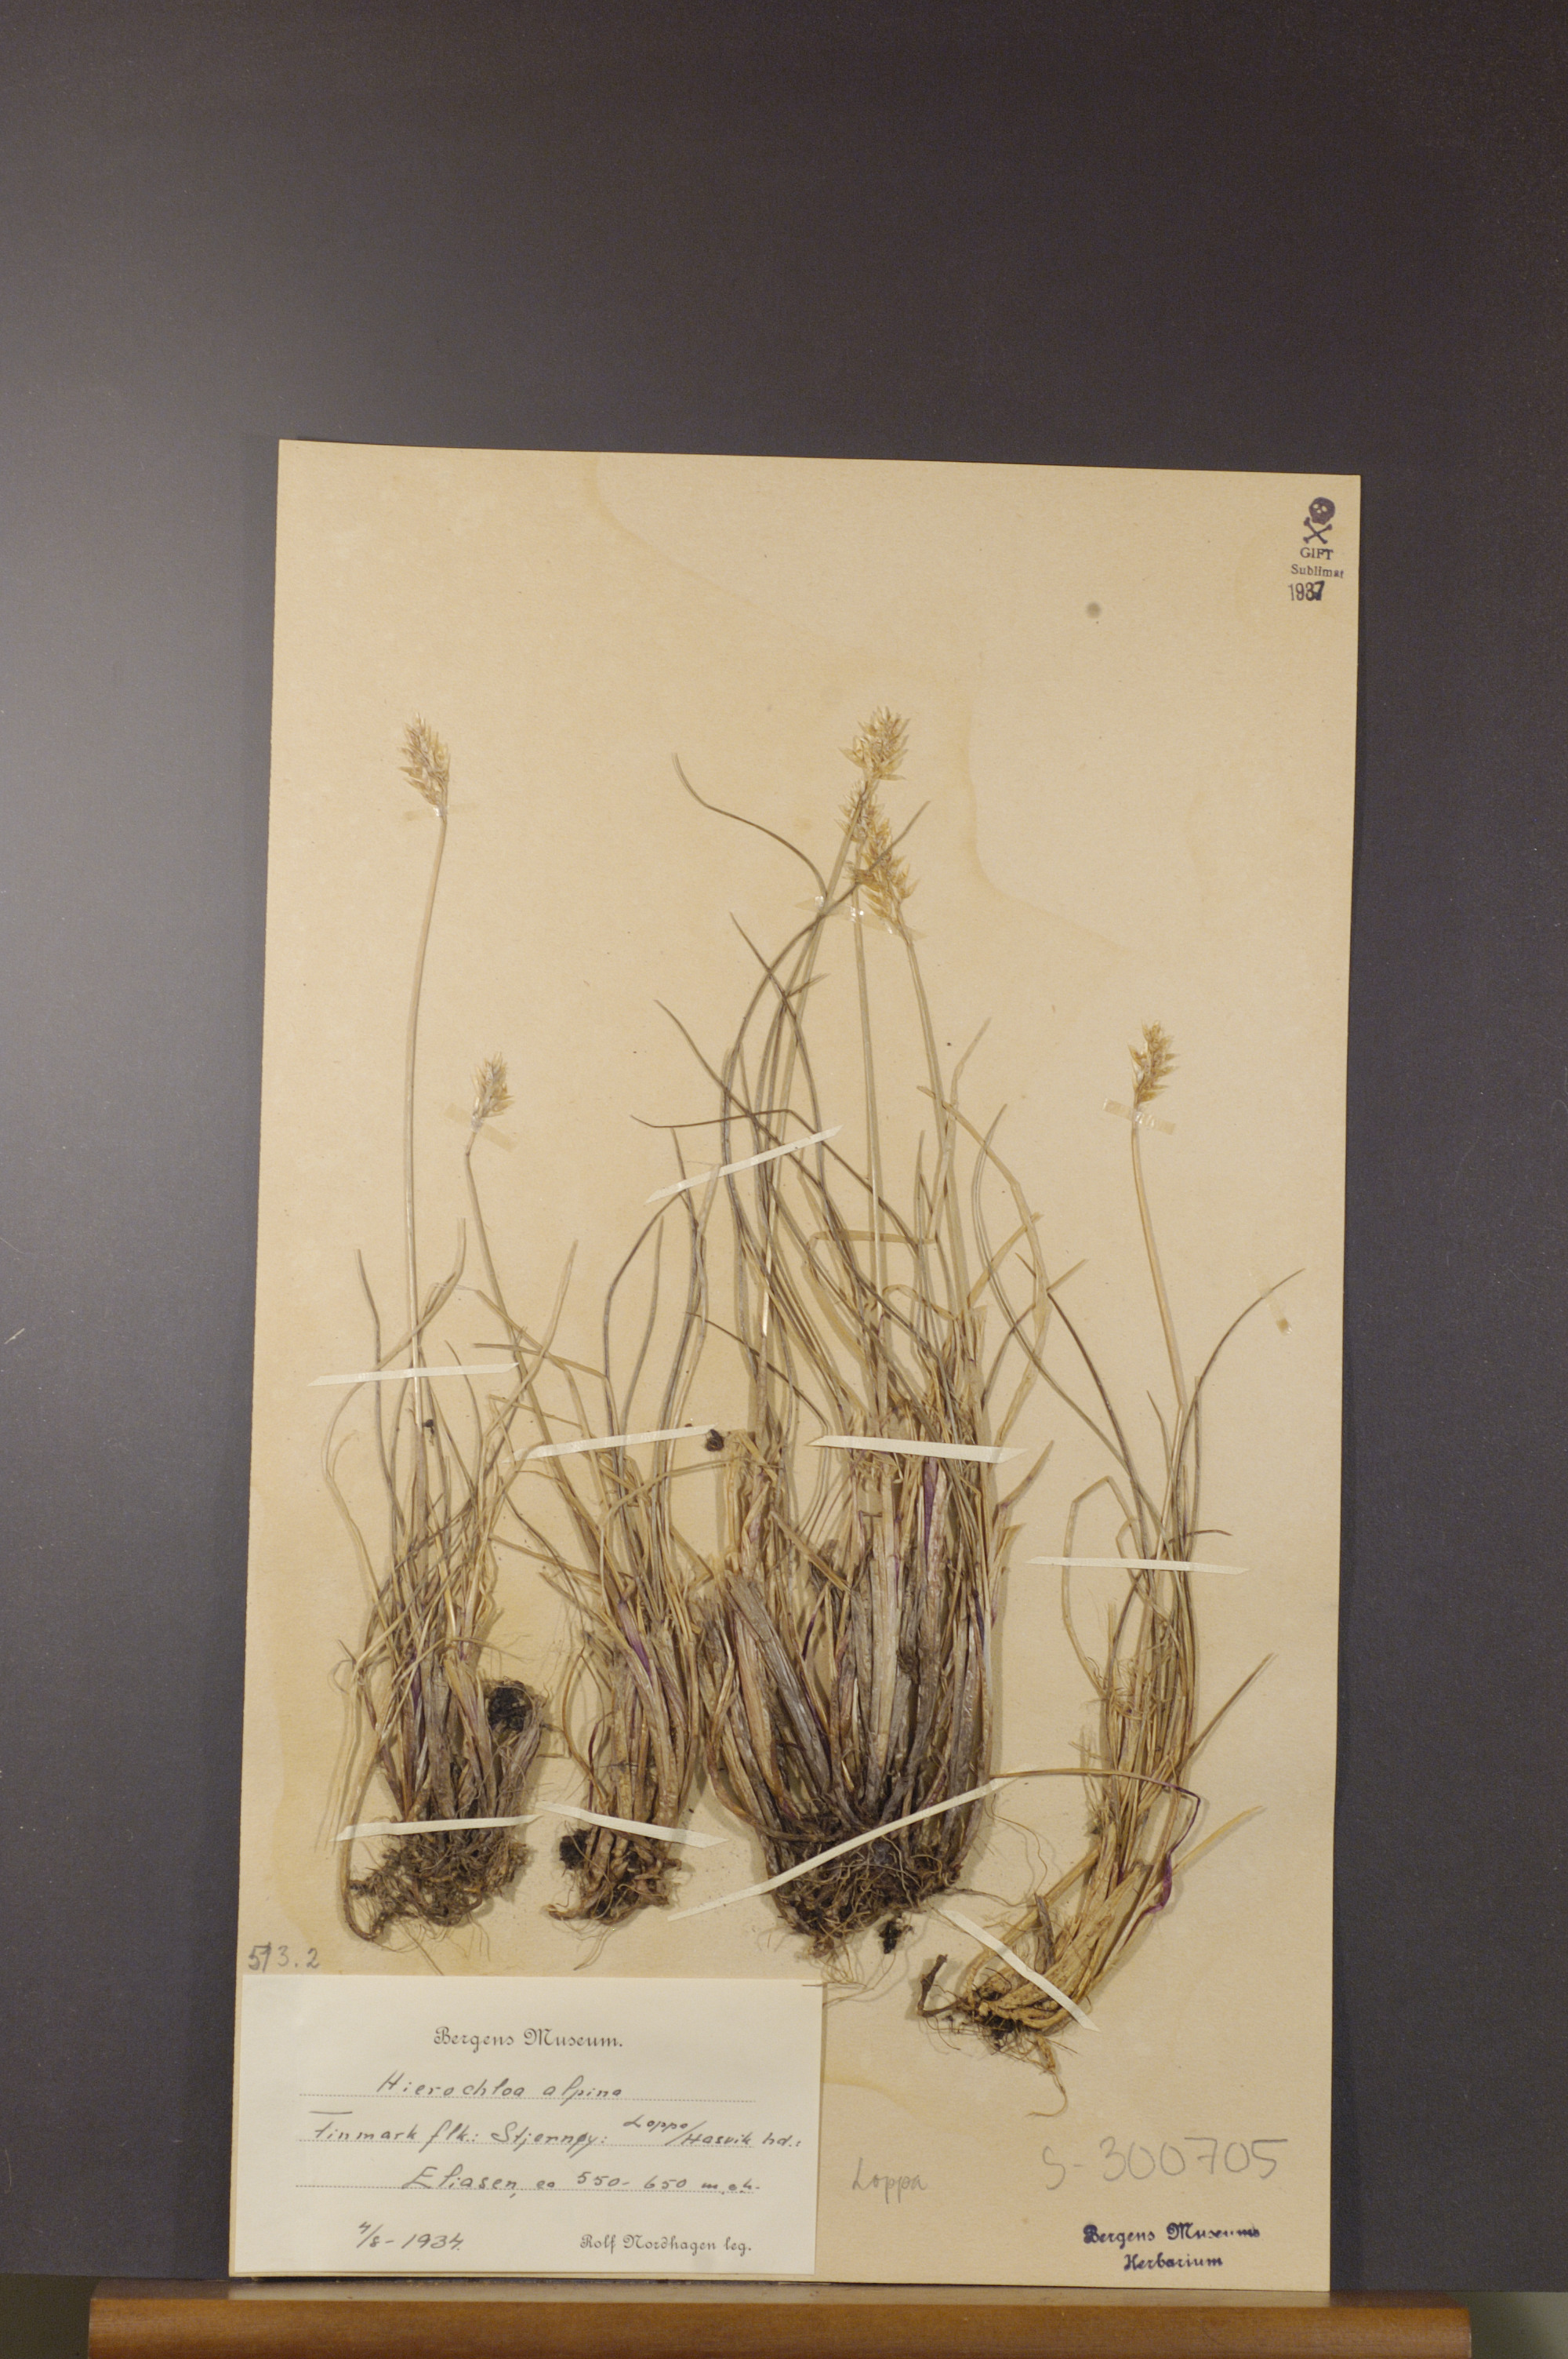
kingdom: Plantae
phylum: Tracheophyta
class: Liliopsida
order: Poales
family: Poaceae
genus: Anthoxanthum
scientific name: Anthoxanthum monticola
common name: Alpine sweetgrass
